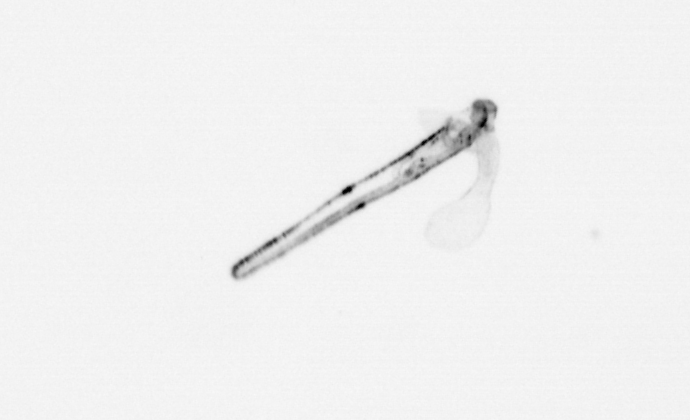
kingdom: Animalia
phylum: Mollusca
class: Gastropoda
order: Pteropoda
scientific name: Pteropoda
